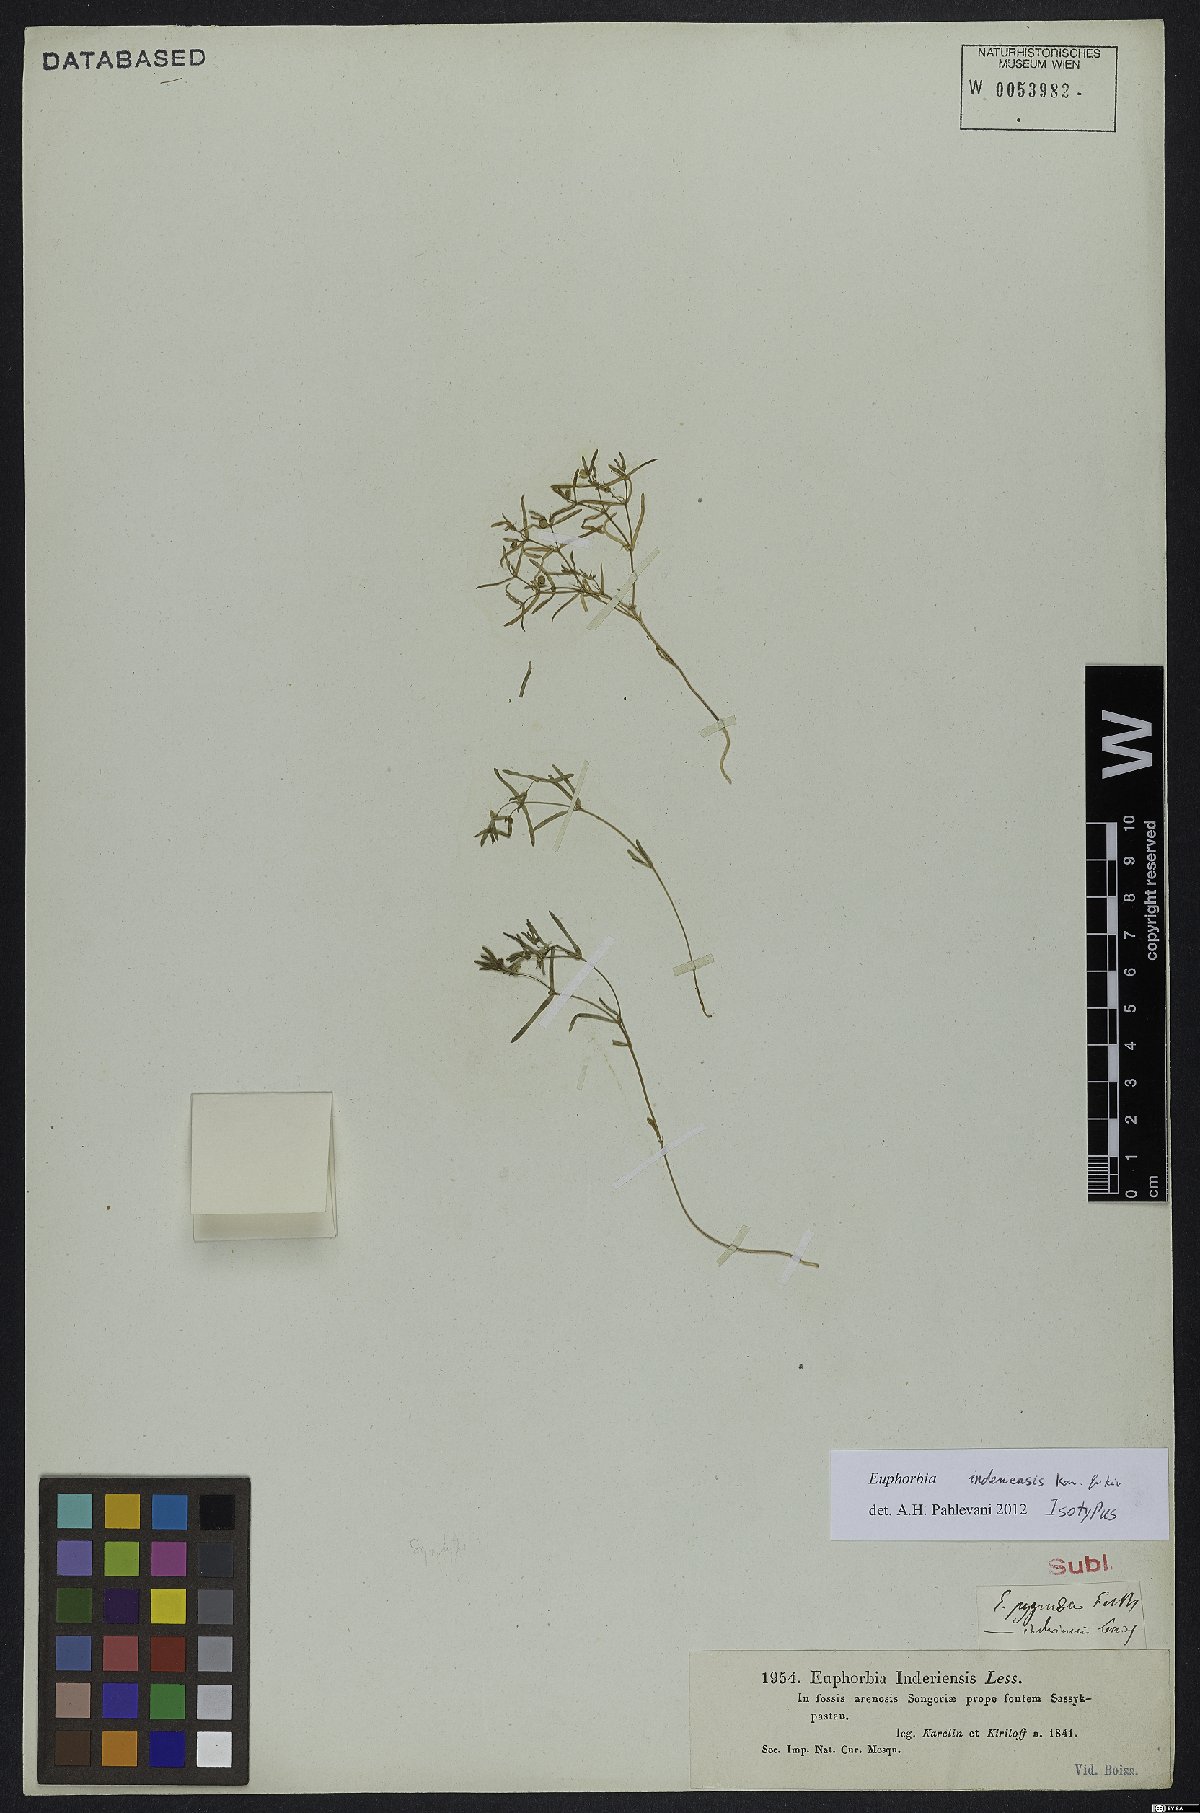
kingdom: Plantae
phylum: Tracheophyta
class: Magnoliopsida
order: Malpighiales
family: Euphorbiaceae
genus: Euphorbia
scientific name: Euphorbia inderiensis
